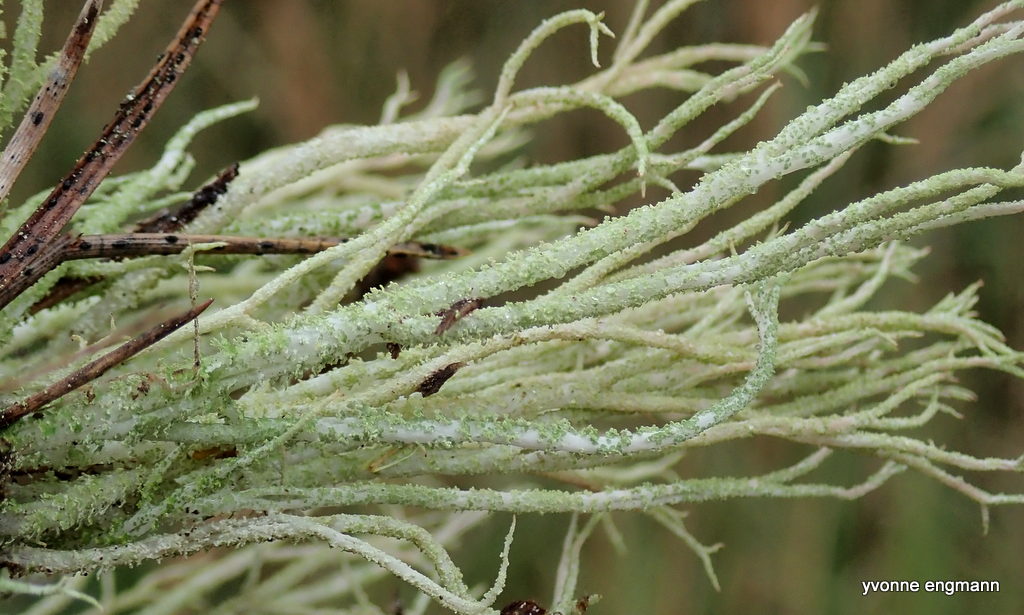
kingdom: Fungi
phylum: Ascomycota
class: Lecanoromycetes
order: Lecanorales
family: Cladoniaceae
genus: Cladonia
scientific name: Cladonia scabriuscula
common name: ru bægerlav
